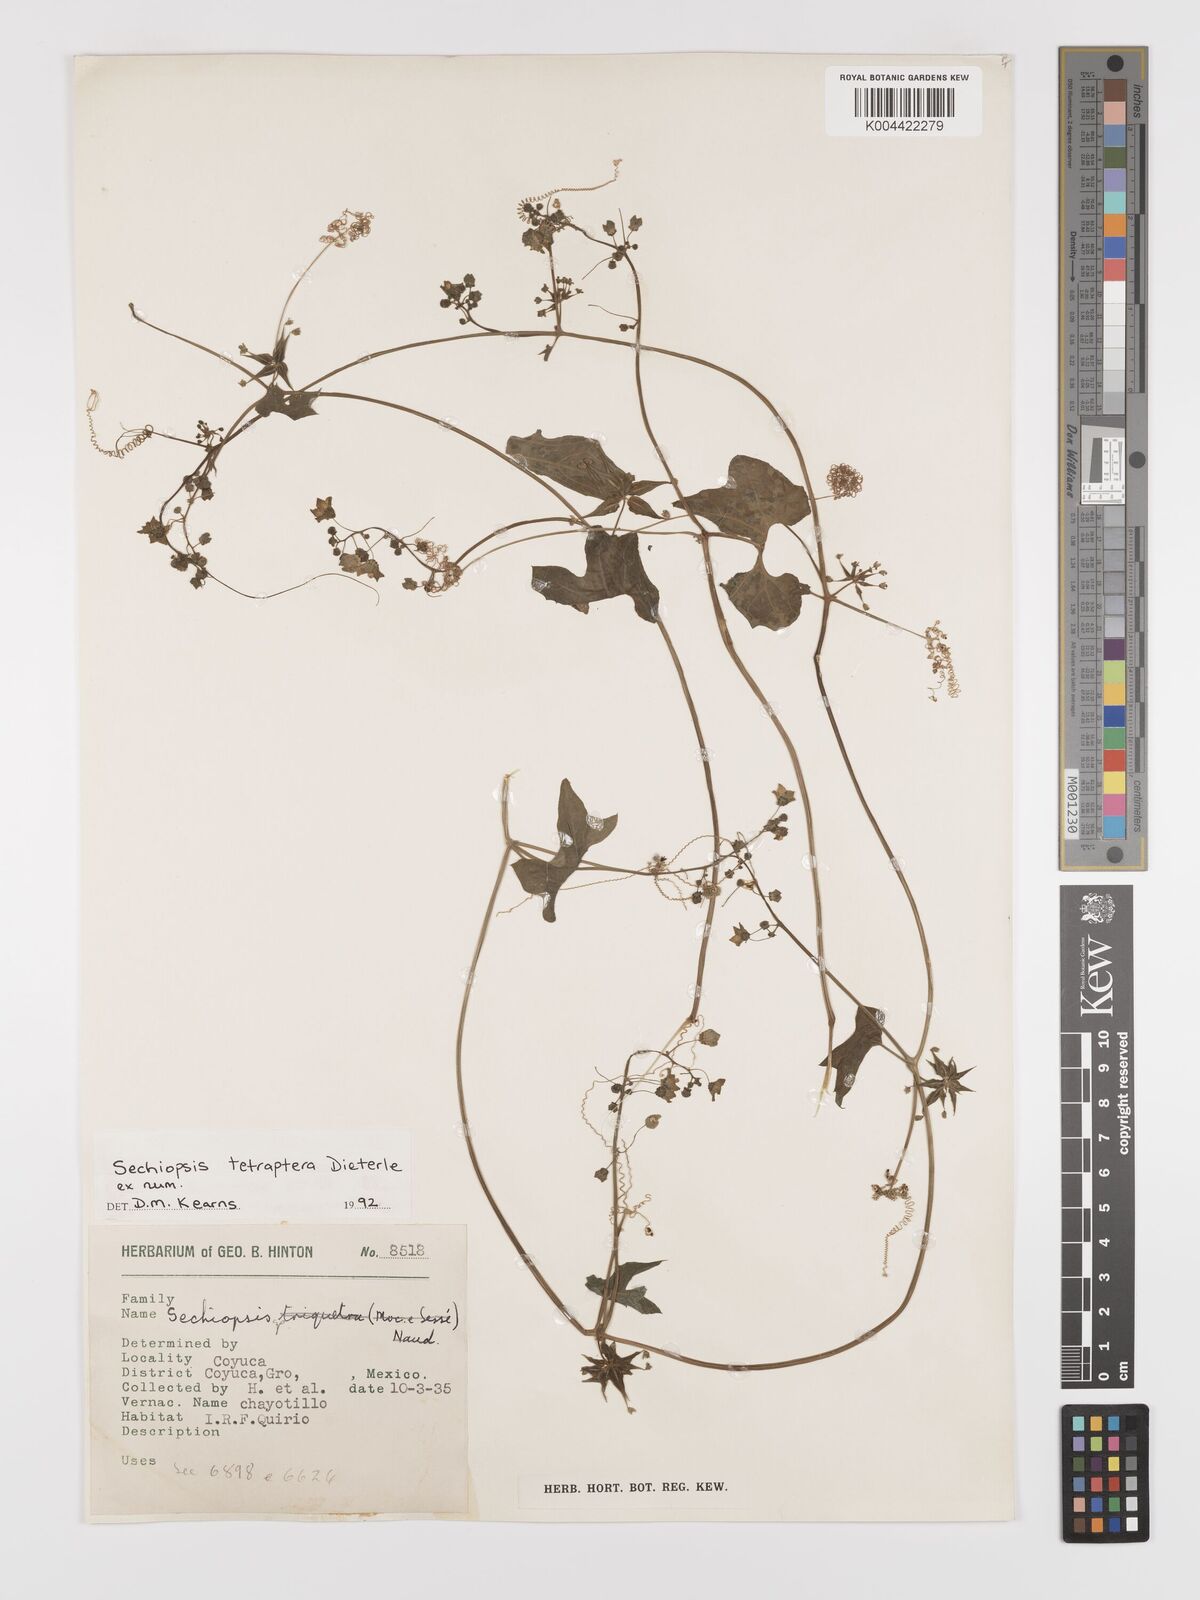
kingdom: Plantae
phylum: Tracheophyta
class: Magnoliopsida
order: Cucurbitales
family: Cucurbitaceae
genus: Sechiopsis
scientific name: Sechiopsis tetraptera
